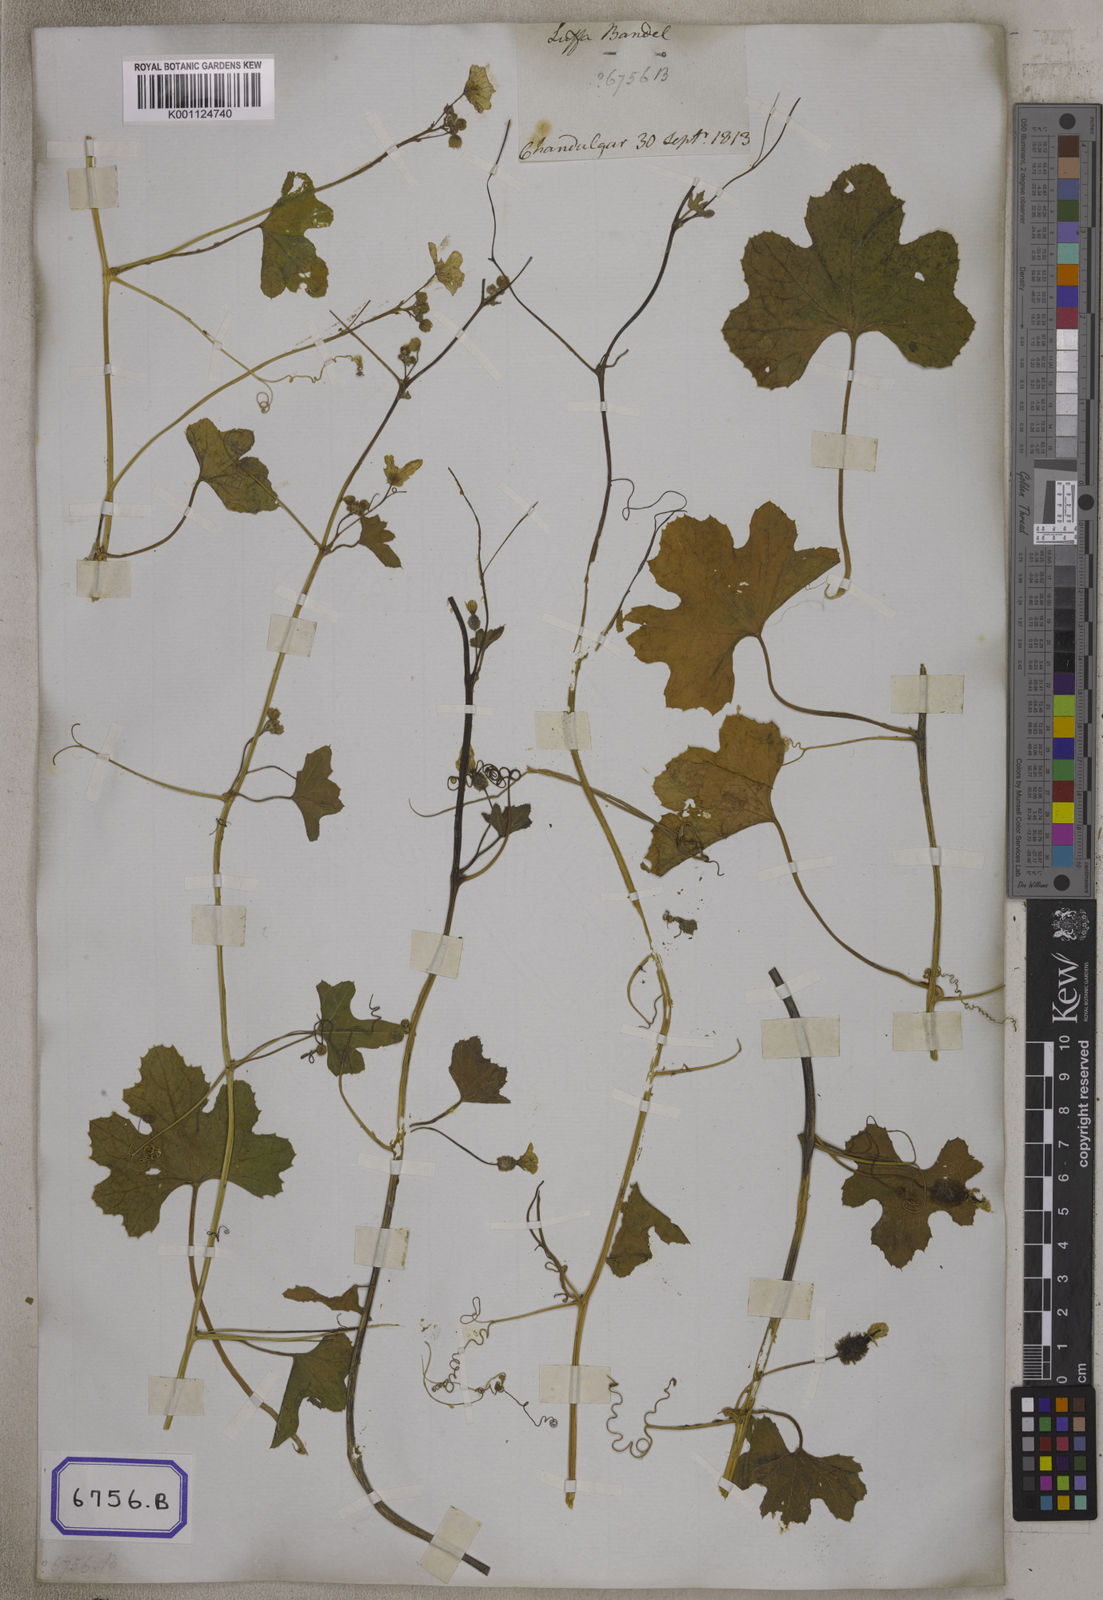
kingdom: Plantae
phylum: Tracheophyta
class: Magnoliopsida
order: Cucurbitales
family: Cucurbitaceae
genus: Luffa
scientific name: Luffa echinata
